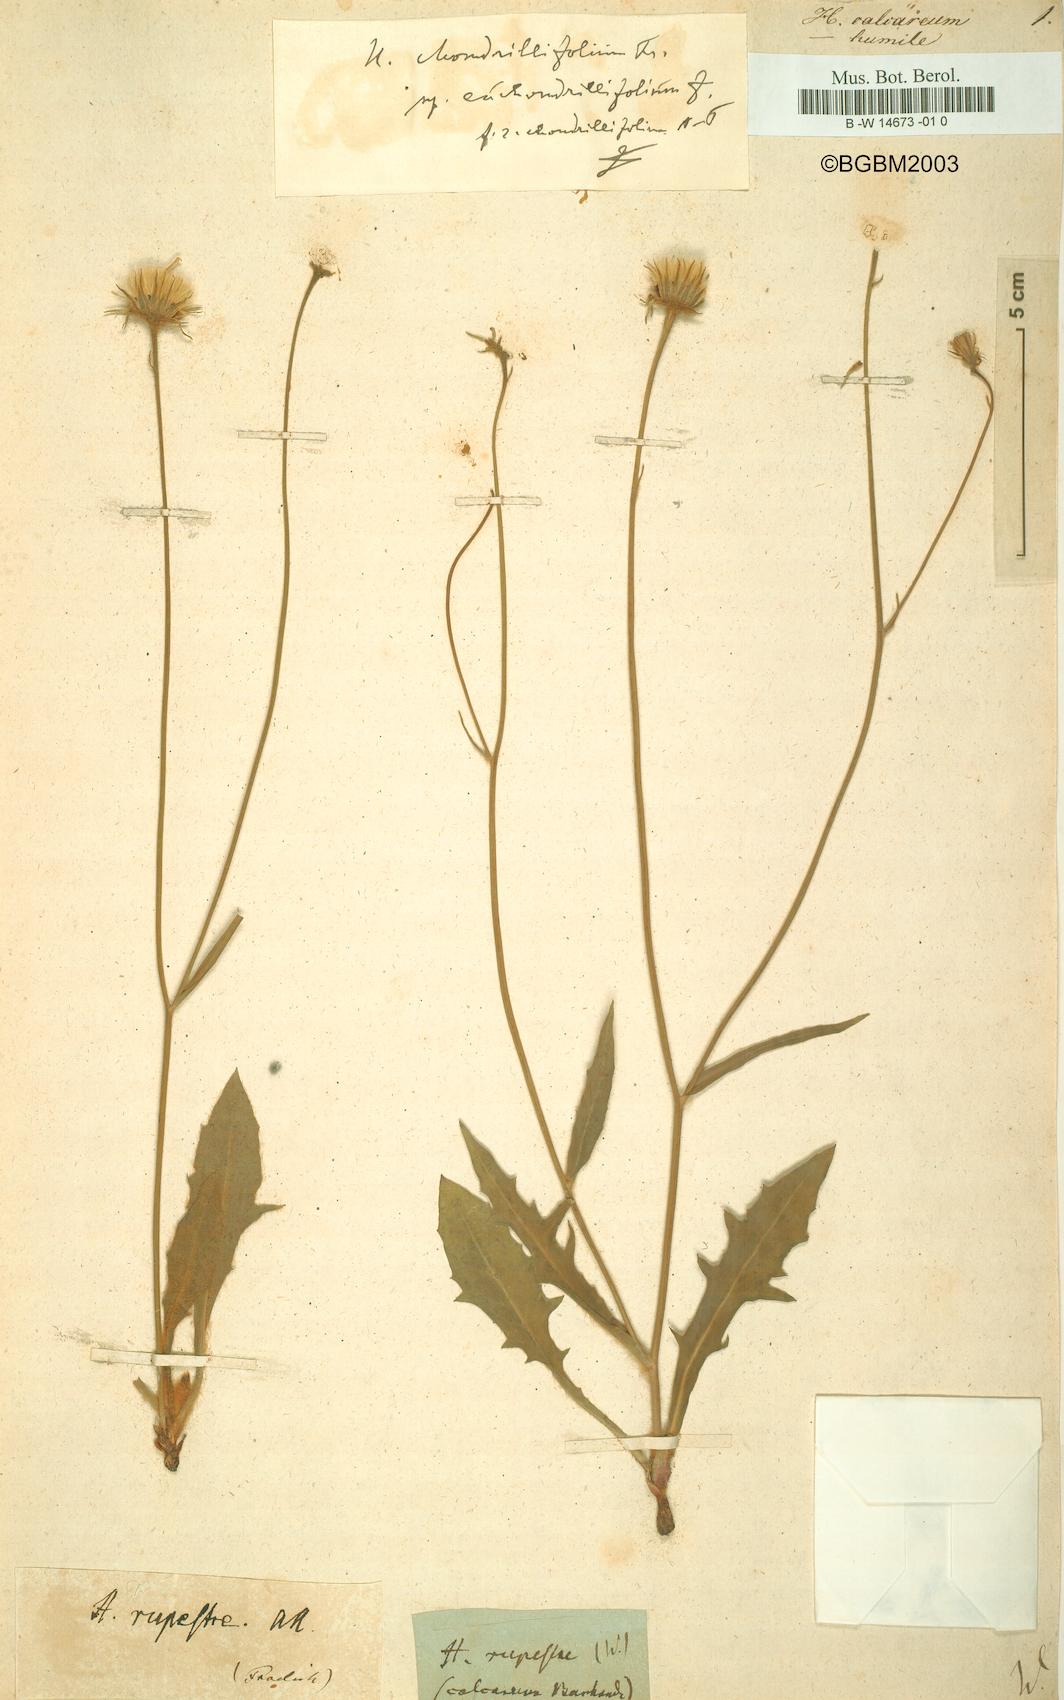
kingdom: Plantae
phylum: Tracheophyta
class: Magnoliopsida
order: Asterales
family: Asteraceae
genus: Hieracium
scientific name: Hieracium calcareum
